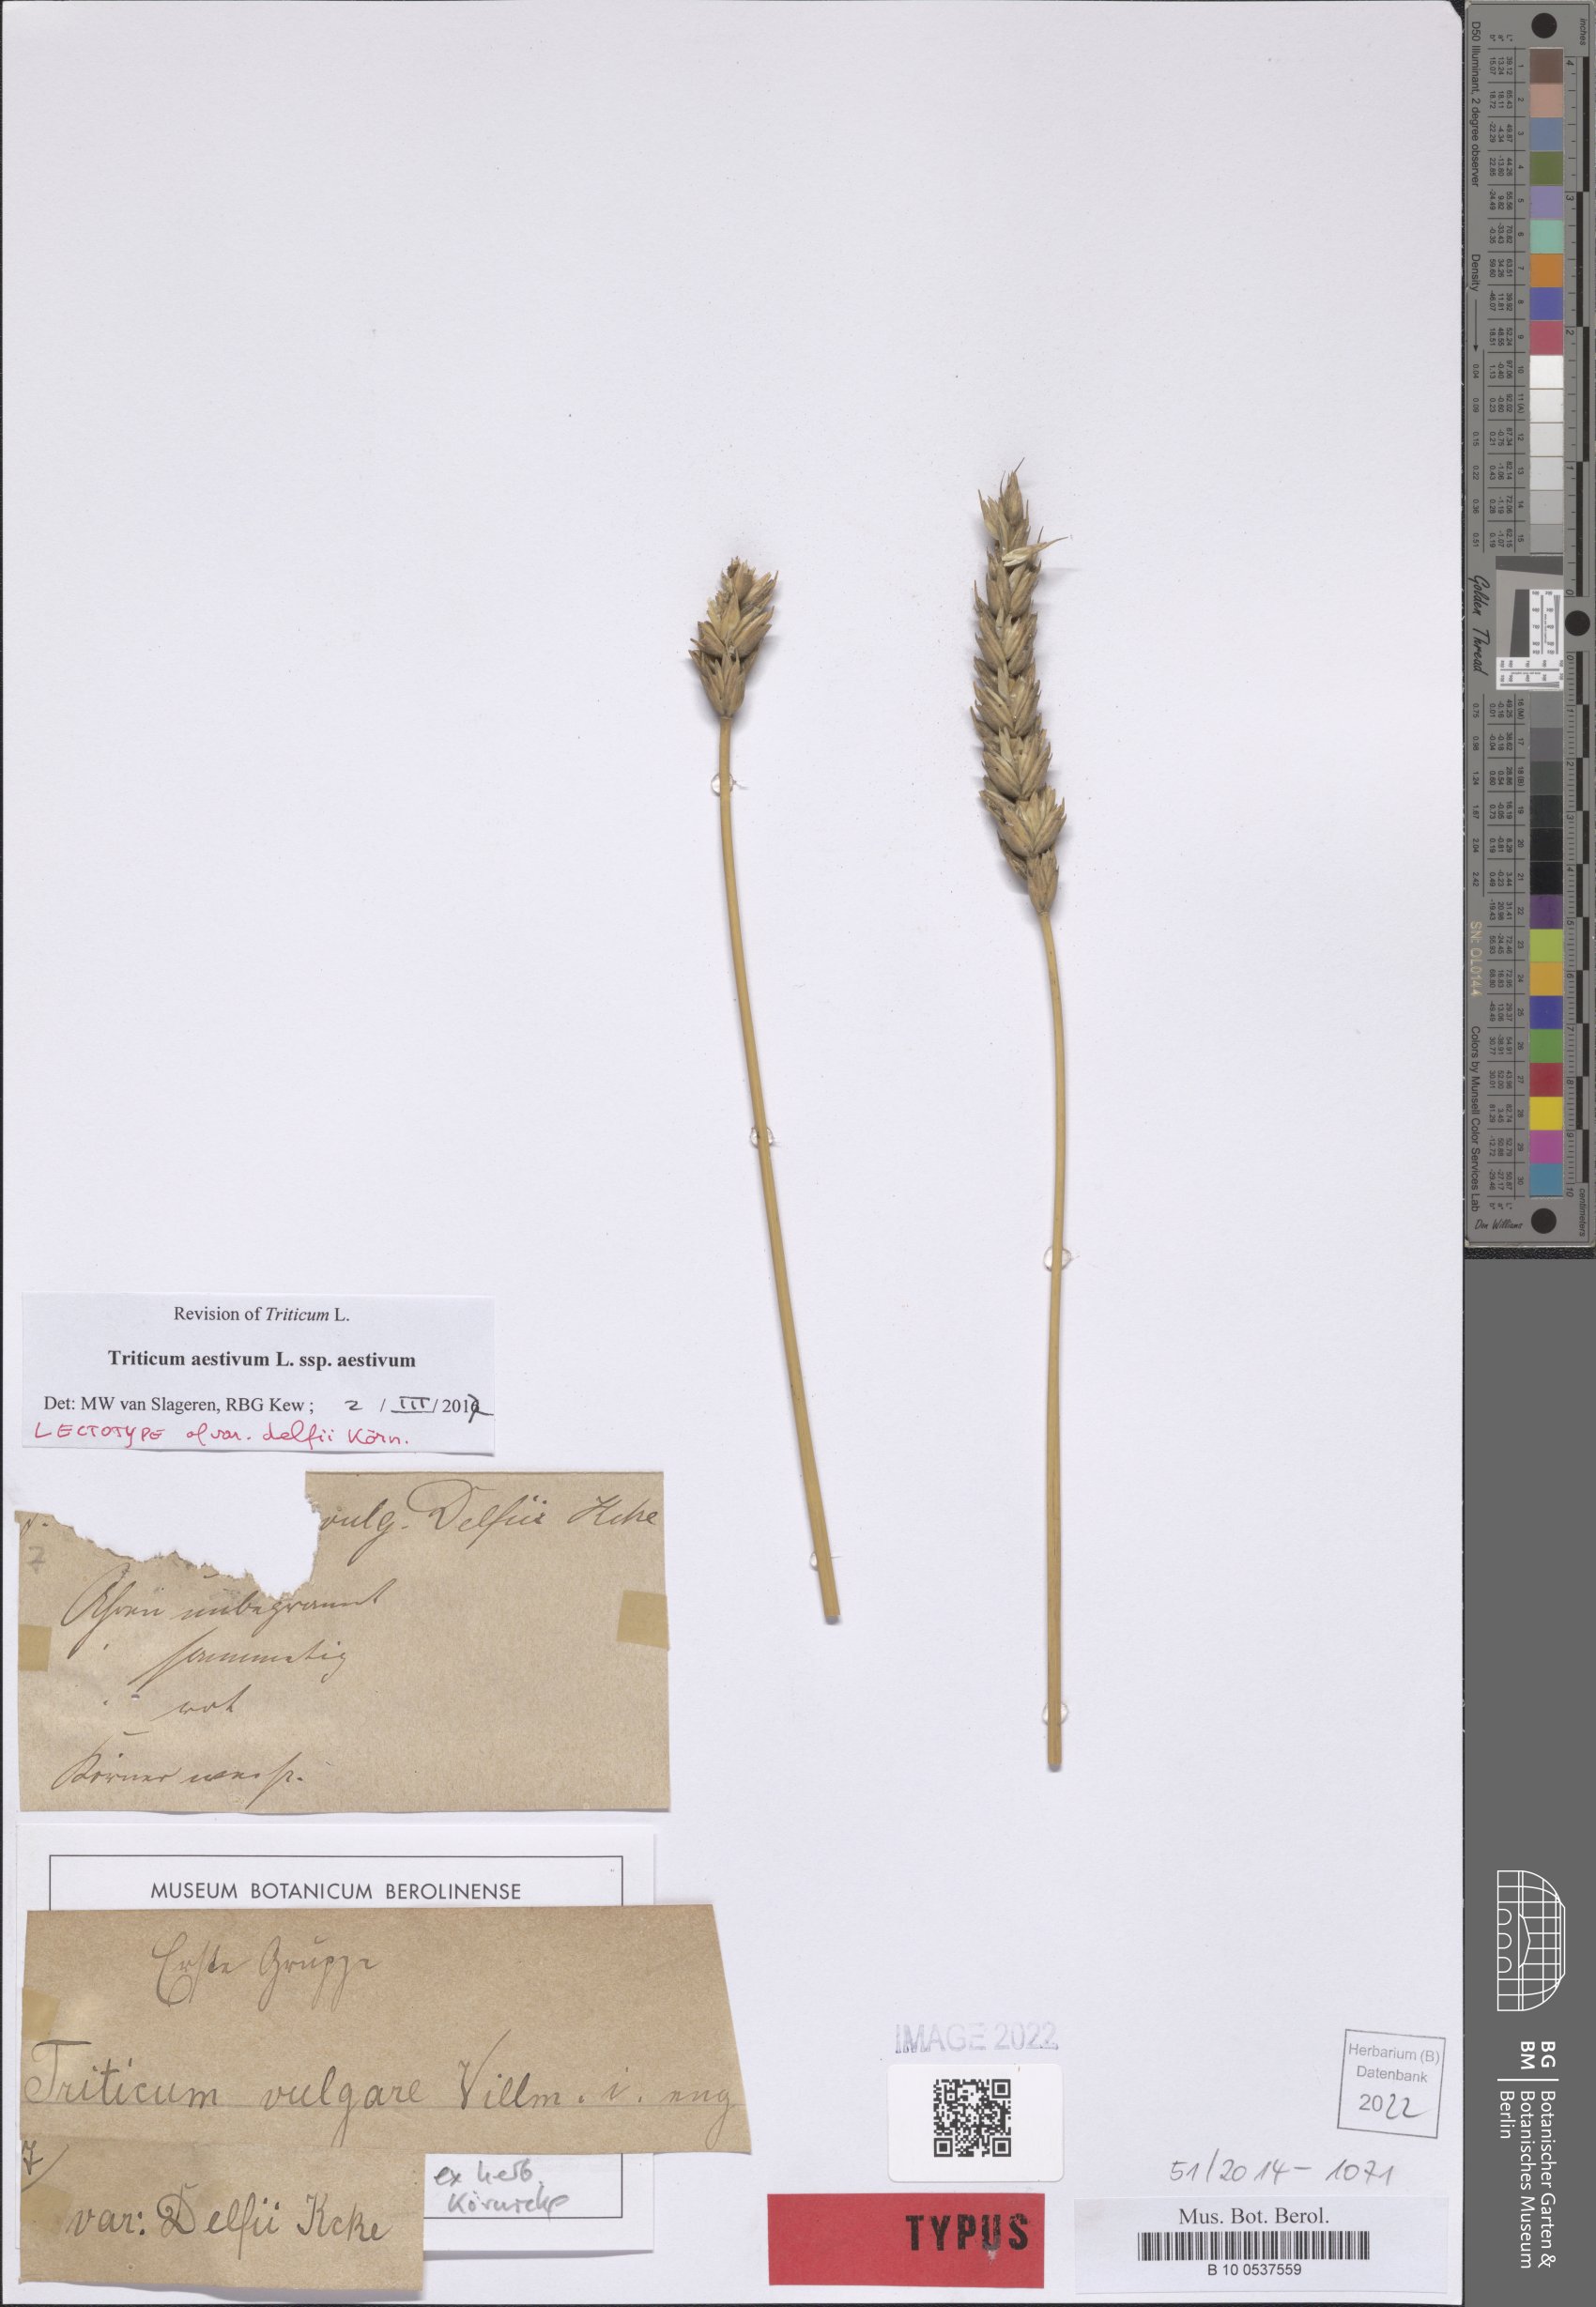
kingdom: Plantae
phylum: Tracheophyta
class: Liliopsida
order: Poales
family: Poaceae
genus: Triticum
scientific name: Triticum aestivum
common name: Common wheat
